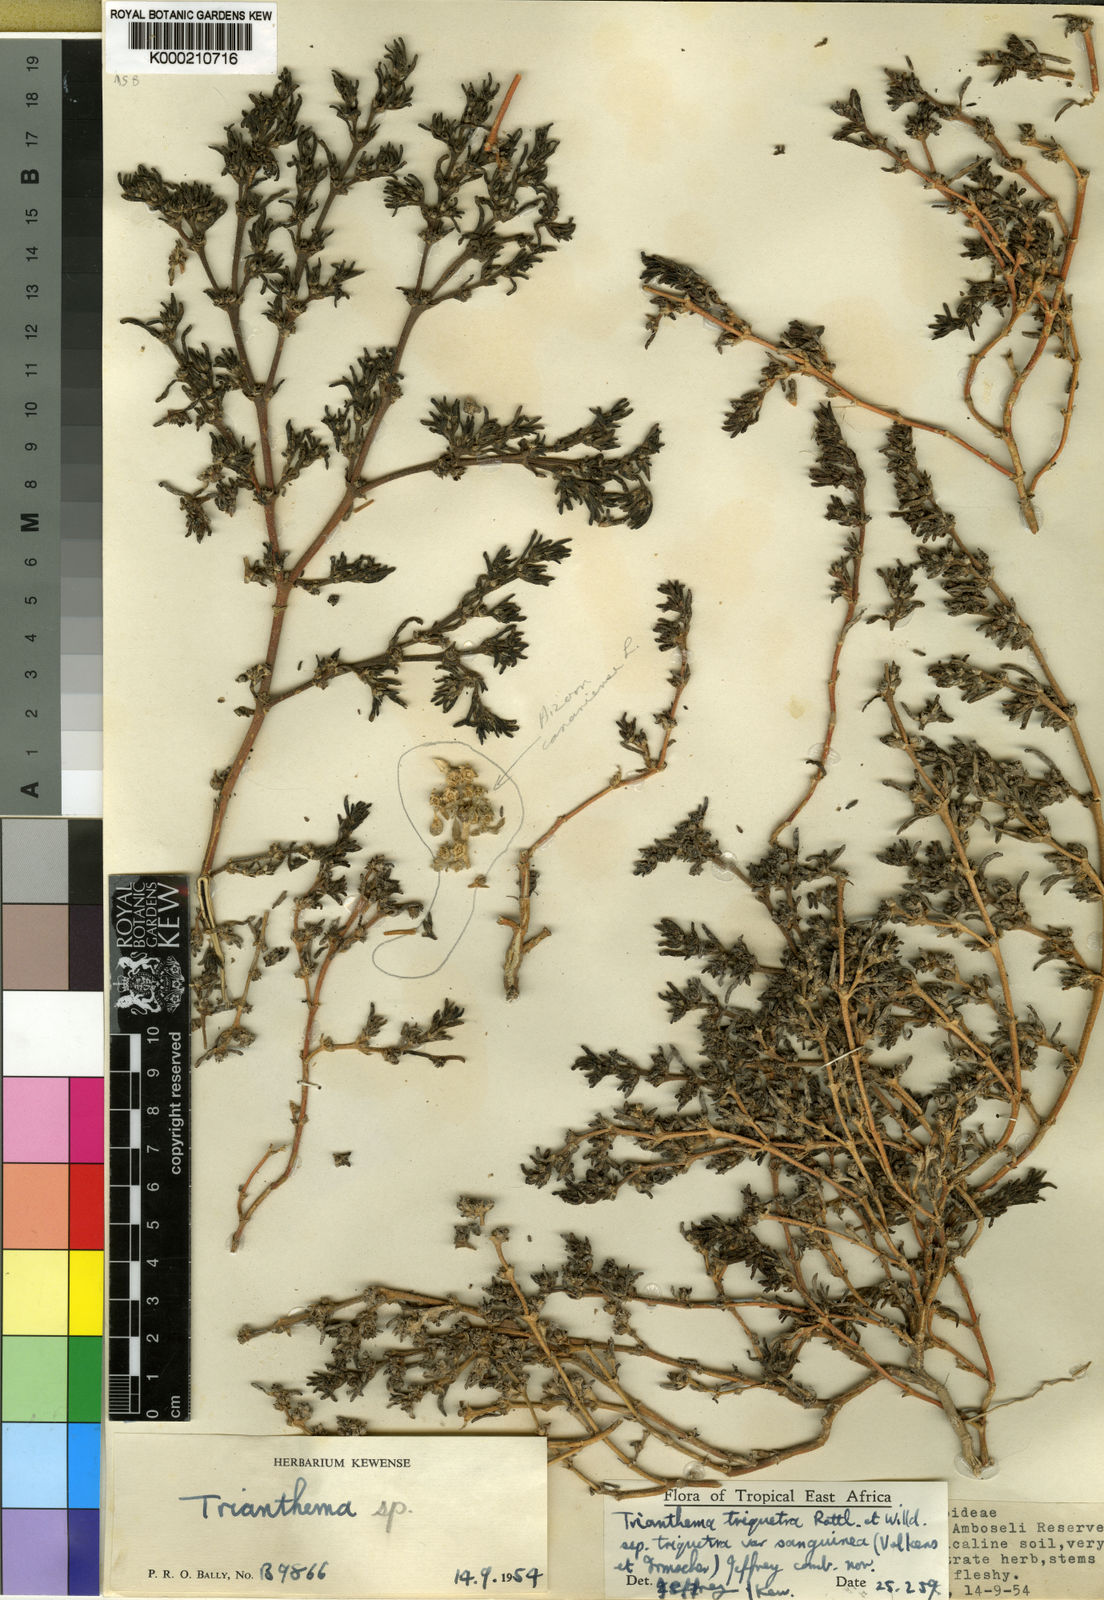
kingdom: Plantae
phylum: Tracheophyta
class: Magnoliopsida
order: Caryophyllales
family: Aizoaceae
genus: Trianthema
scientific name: Trianthema triquetrum
